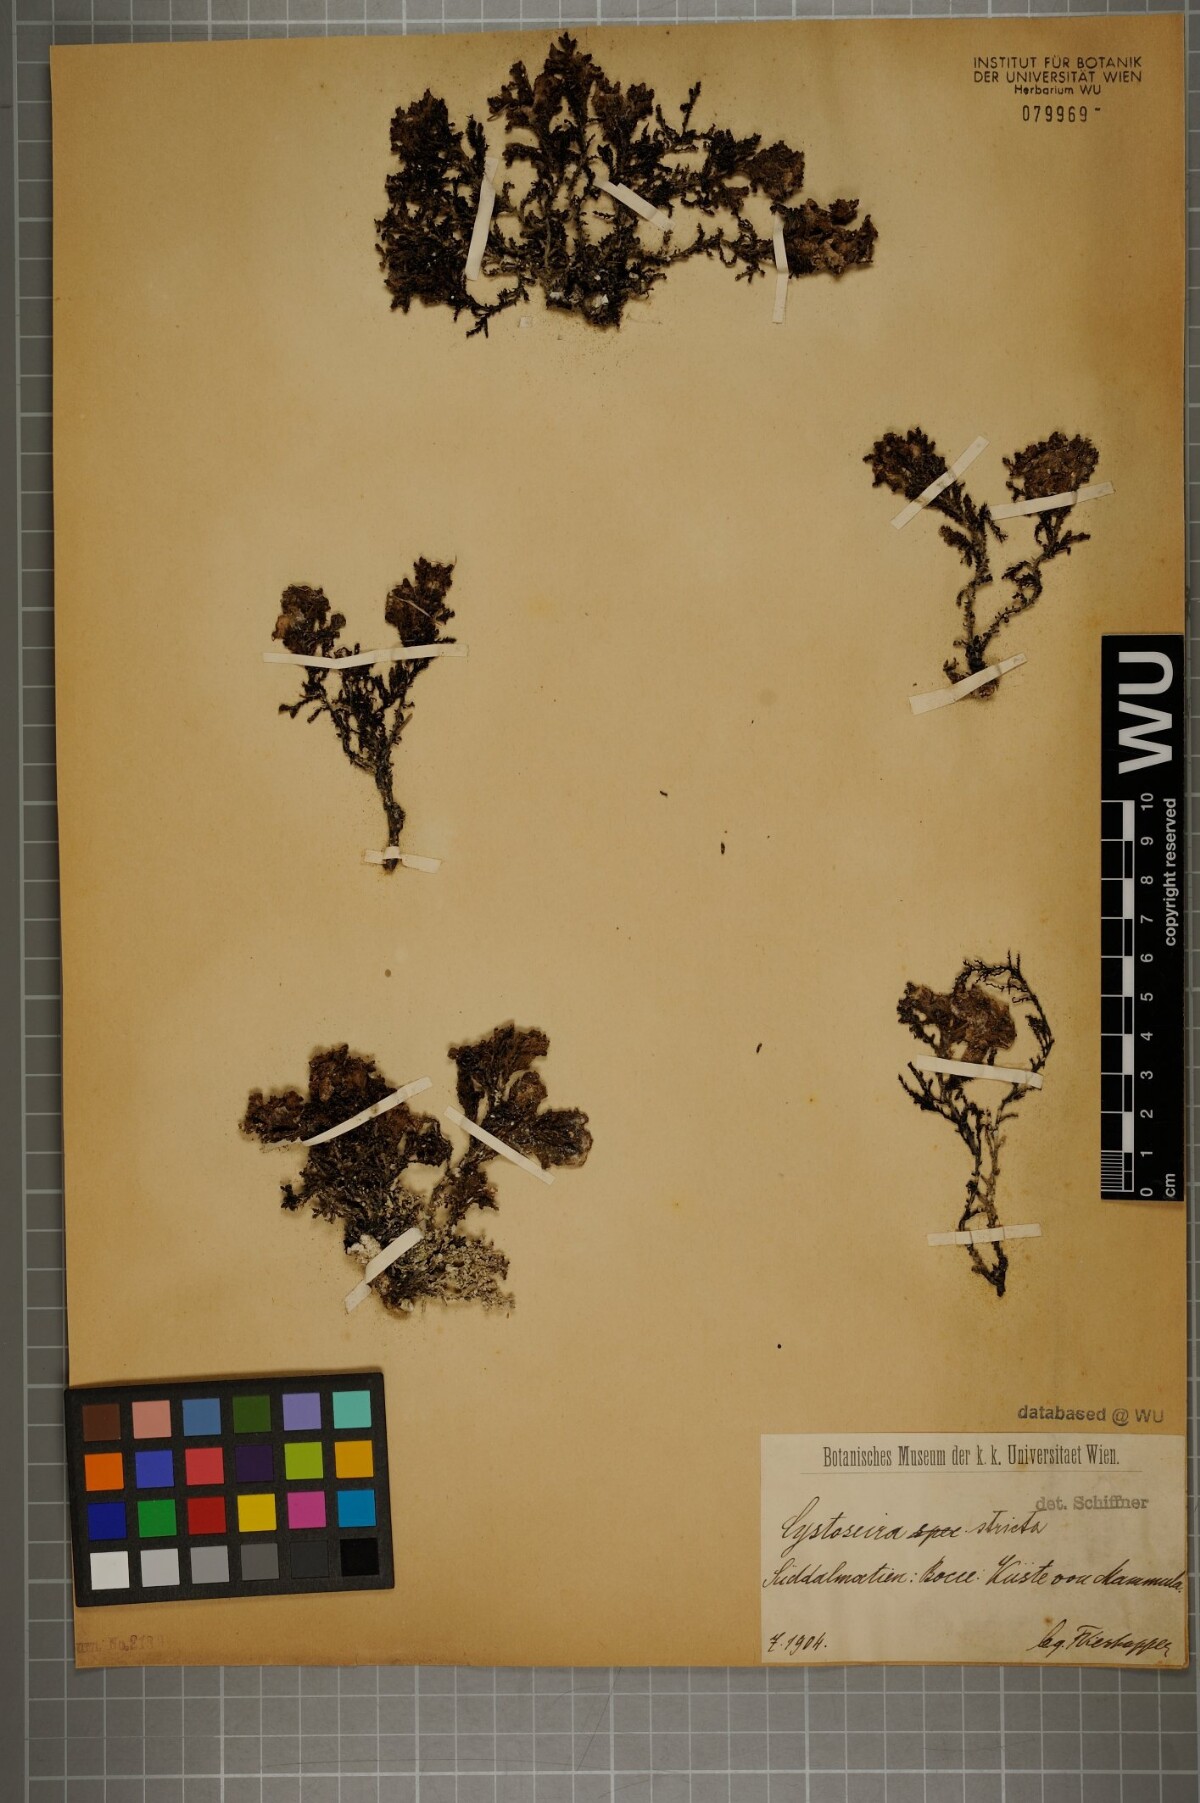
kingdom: Chromista
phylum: Ochrophyta
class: Phaeophyceae
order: Fucales
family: Sargassaceae
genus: Cystoseira
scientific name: Cystoseira Ericaria amentacea
